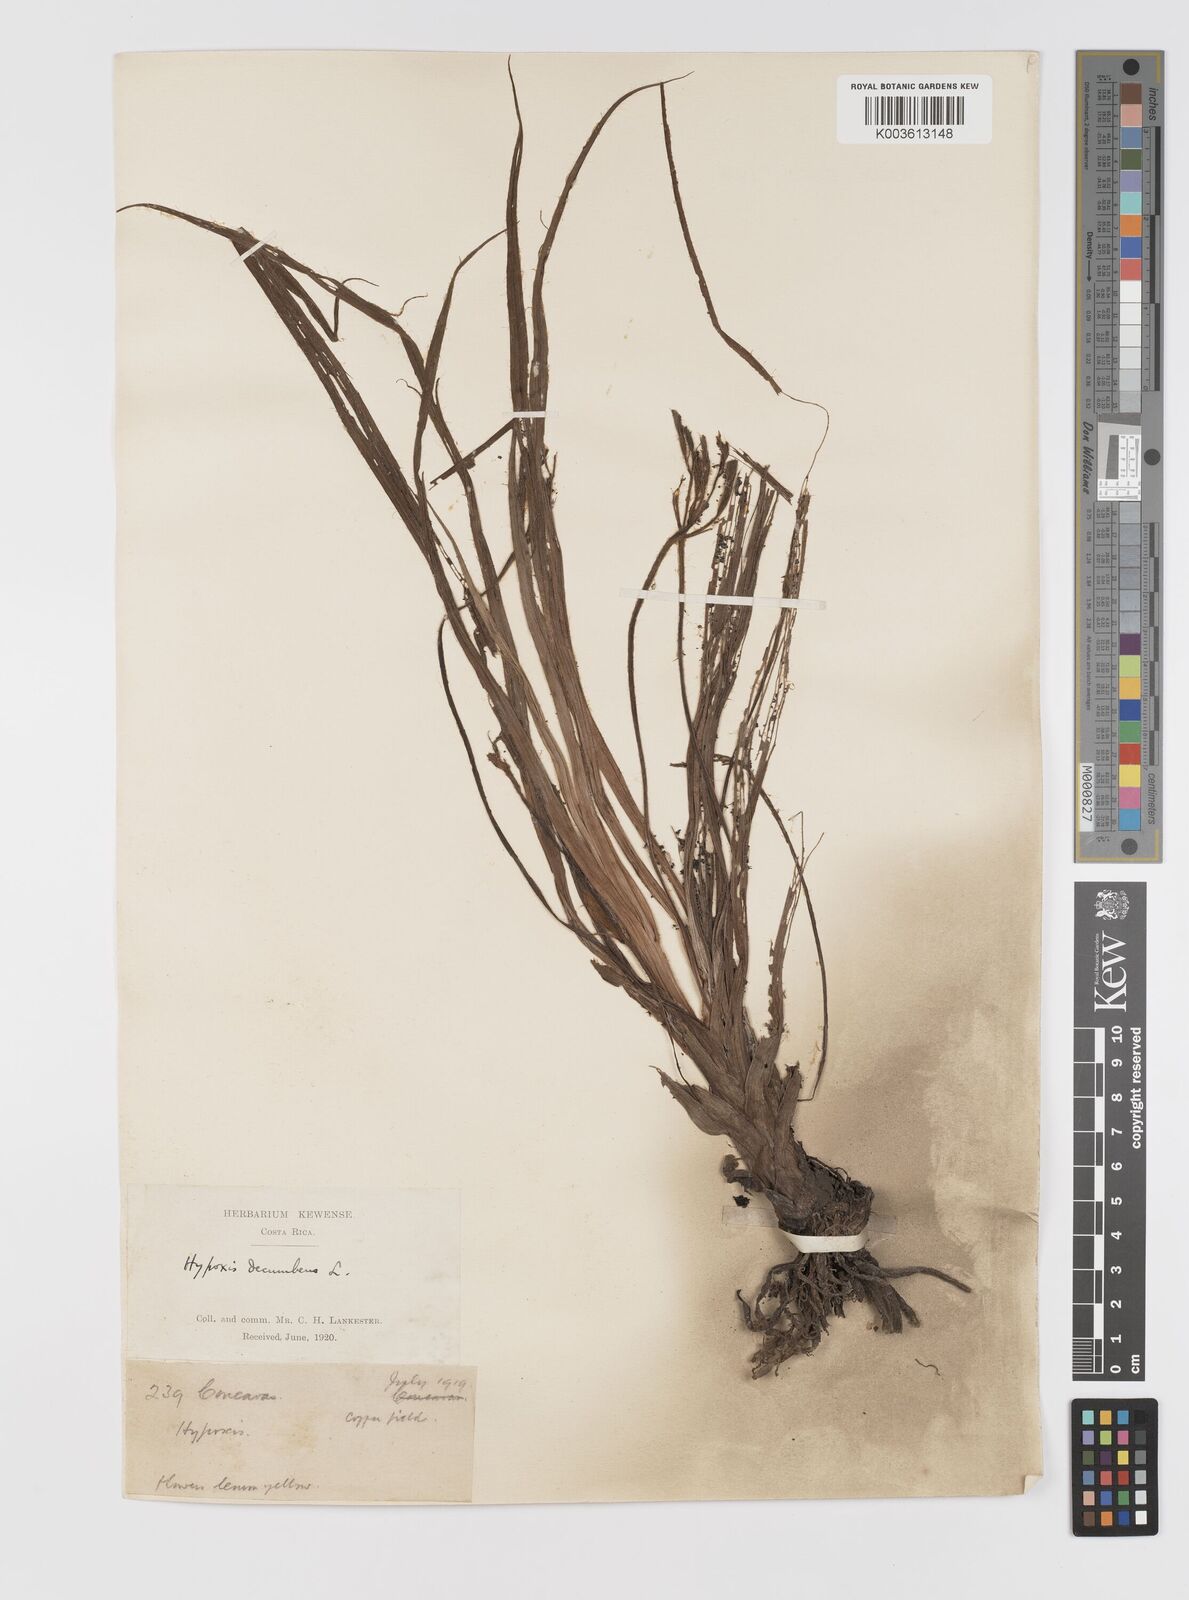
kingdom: Plantae
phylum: Tracheophyta
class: Liliopsida
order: Asparagales
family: Hypoxidaceae
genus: Hypoxis
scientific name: Hypoxis decumbens
